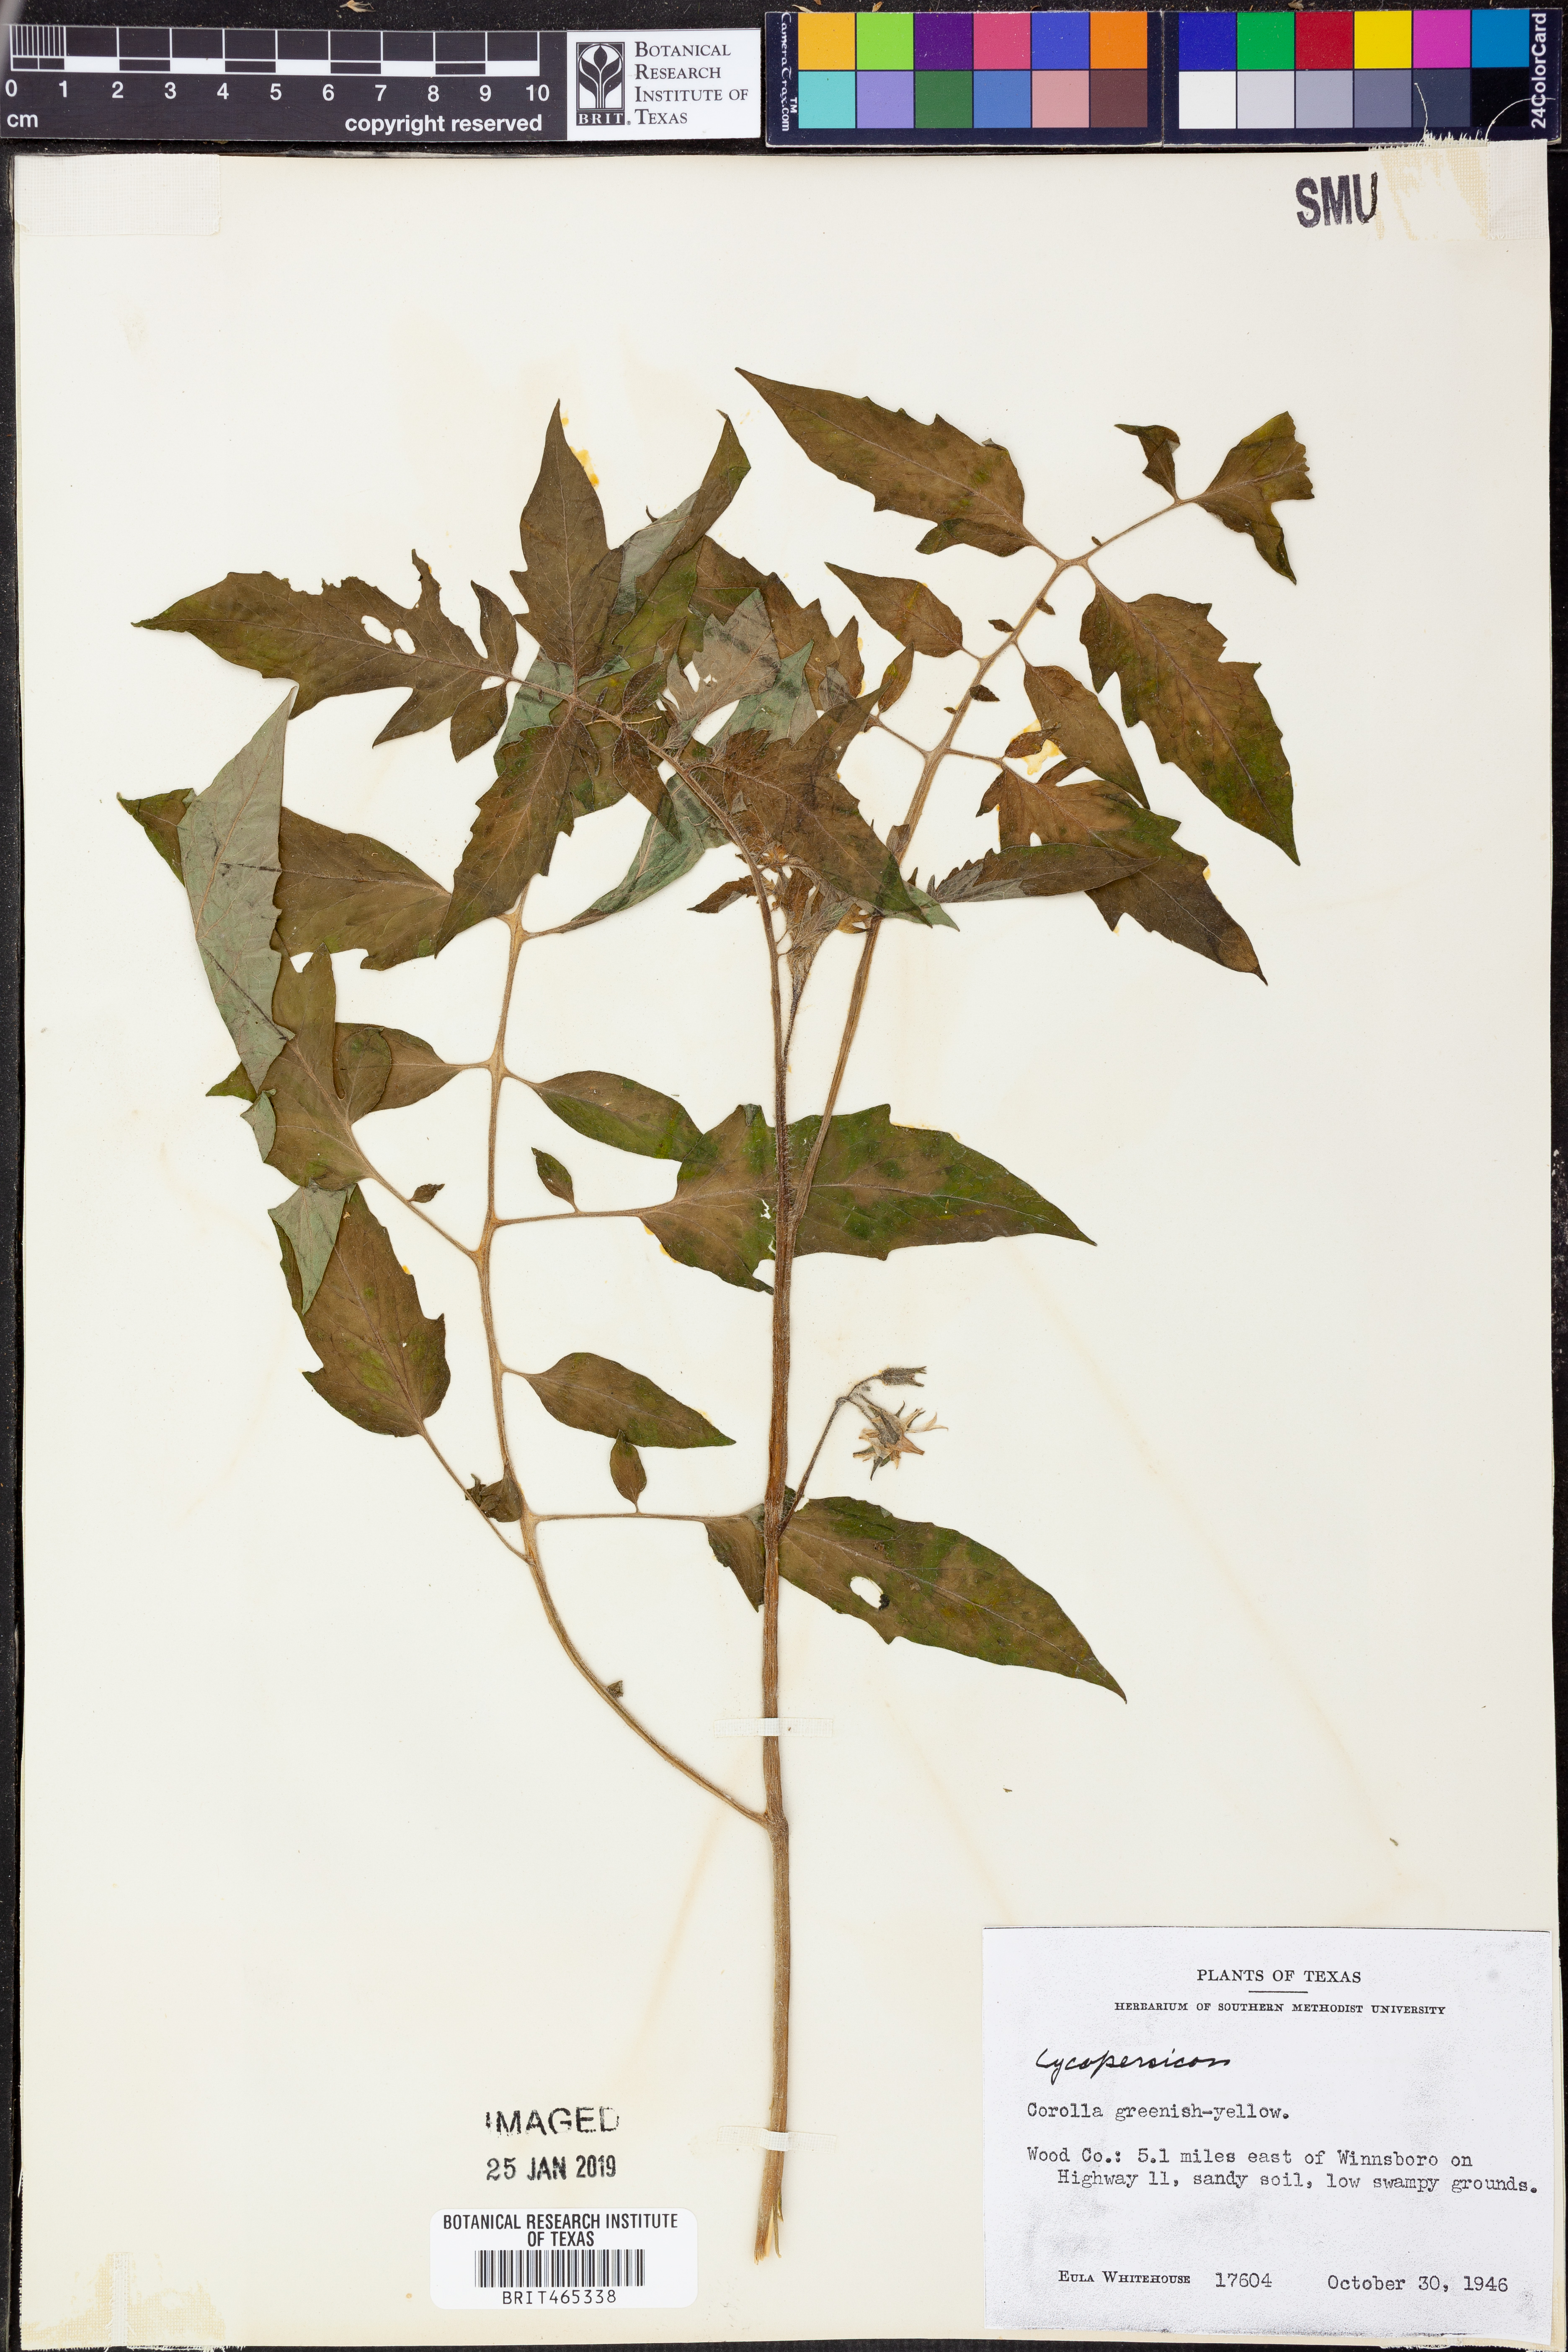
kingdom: Plantae
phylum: Tracheophyta
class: Magnoliopsida
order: Solanales
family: Solanaceae
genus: Lycopersicon
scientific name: Lycopersicon
